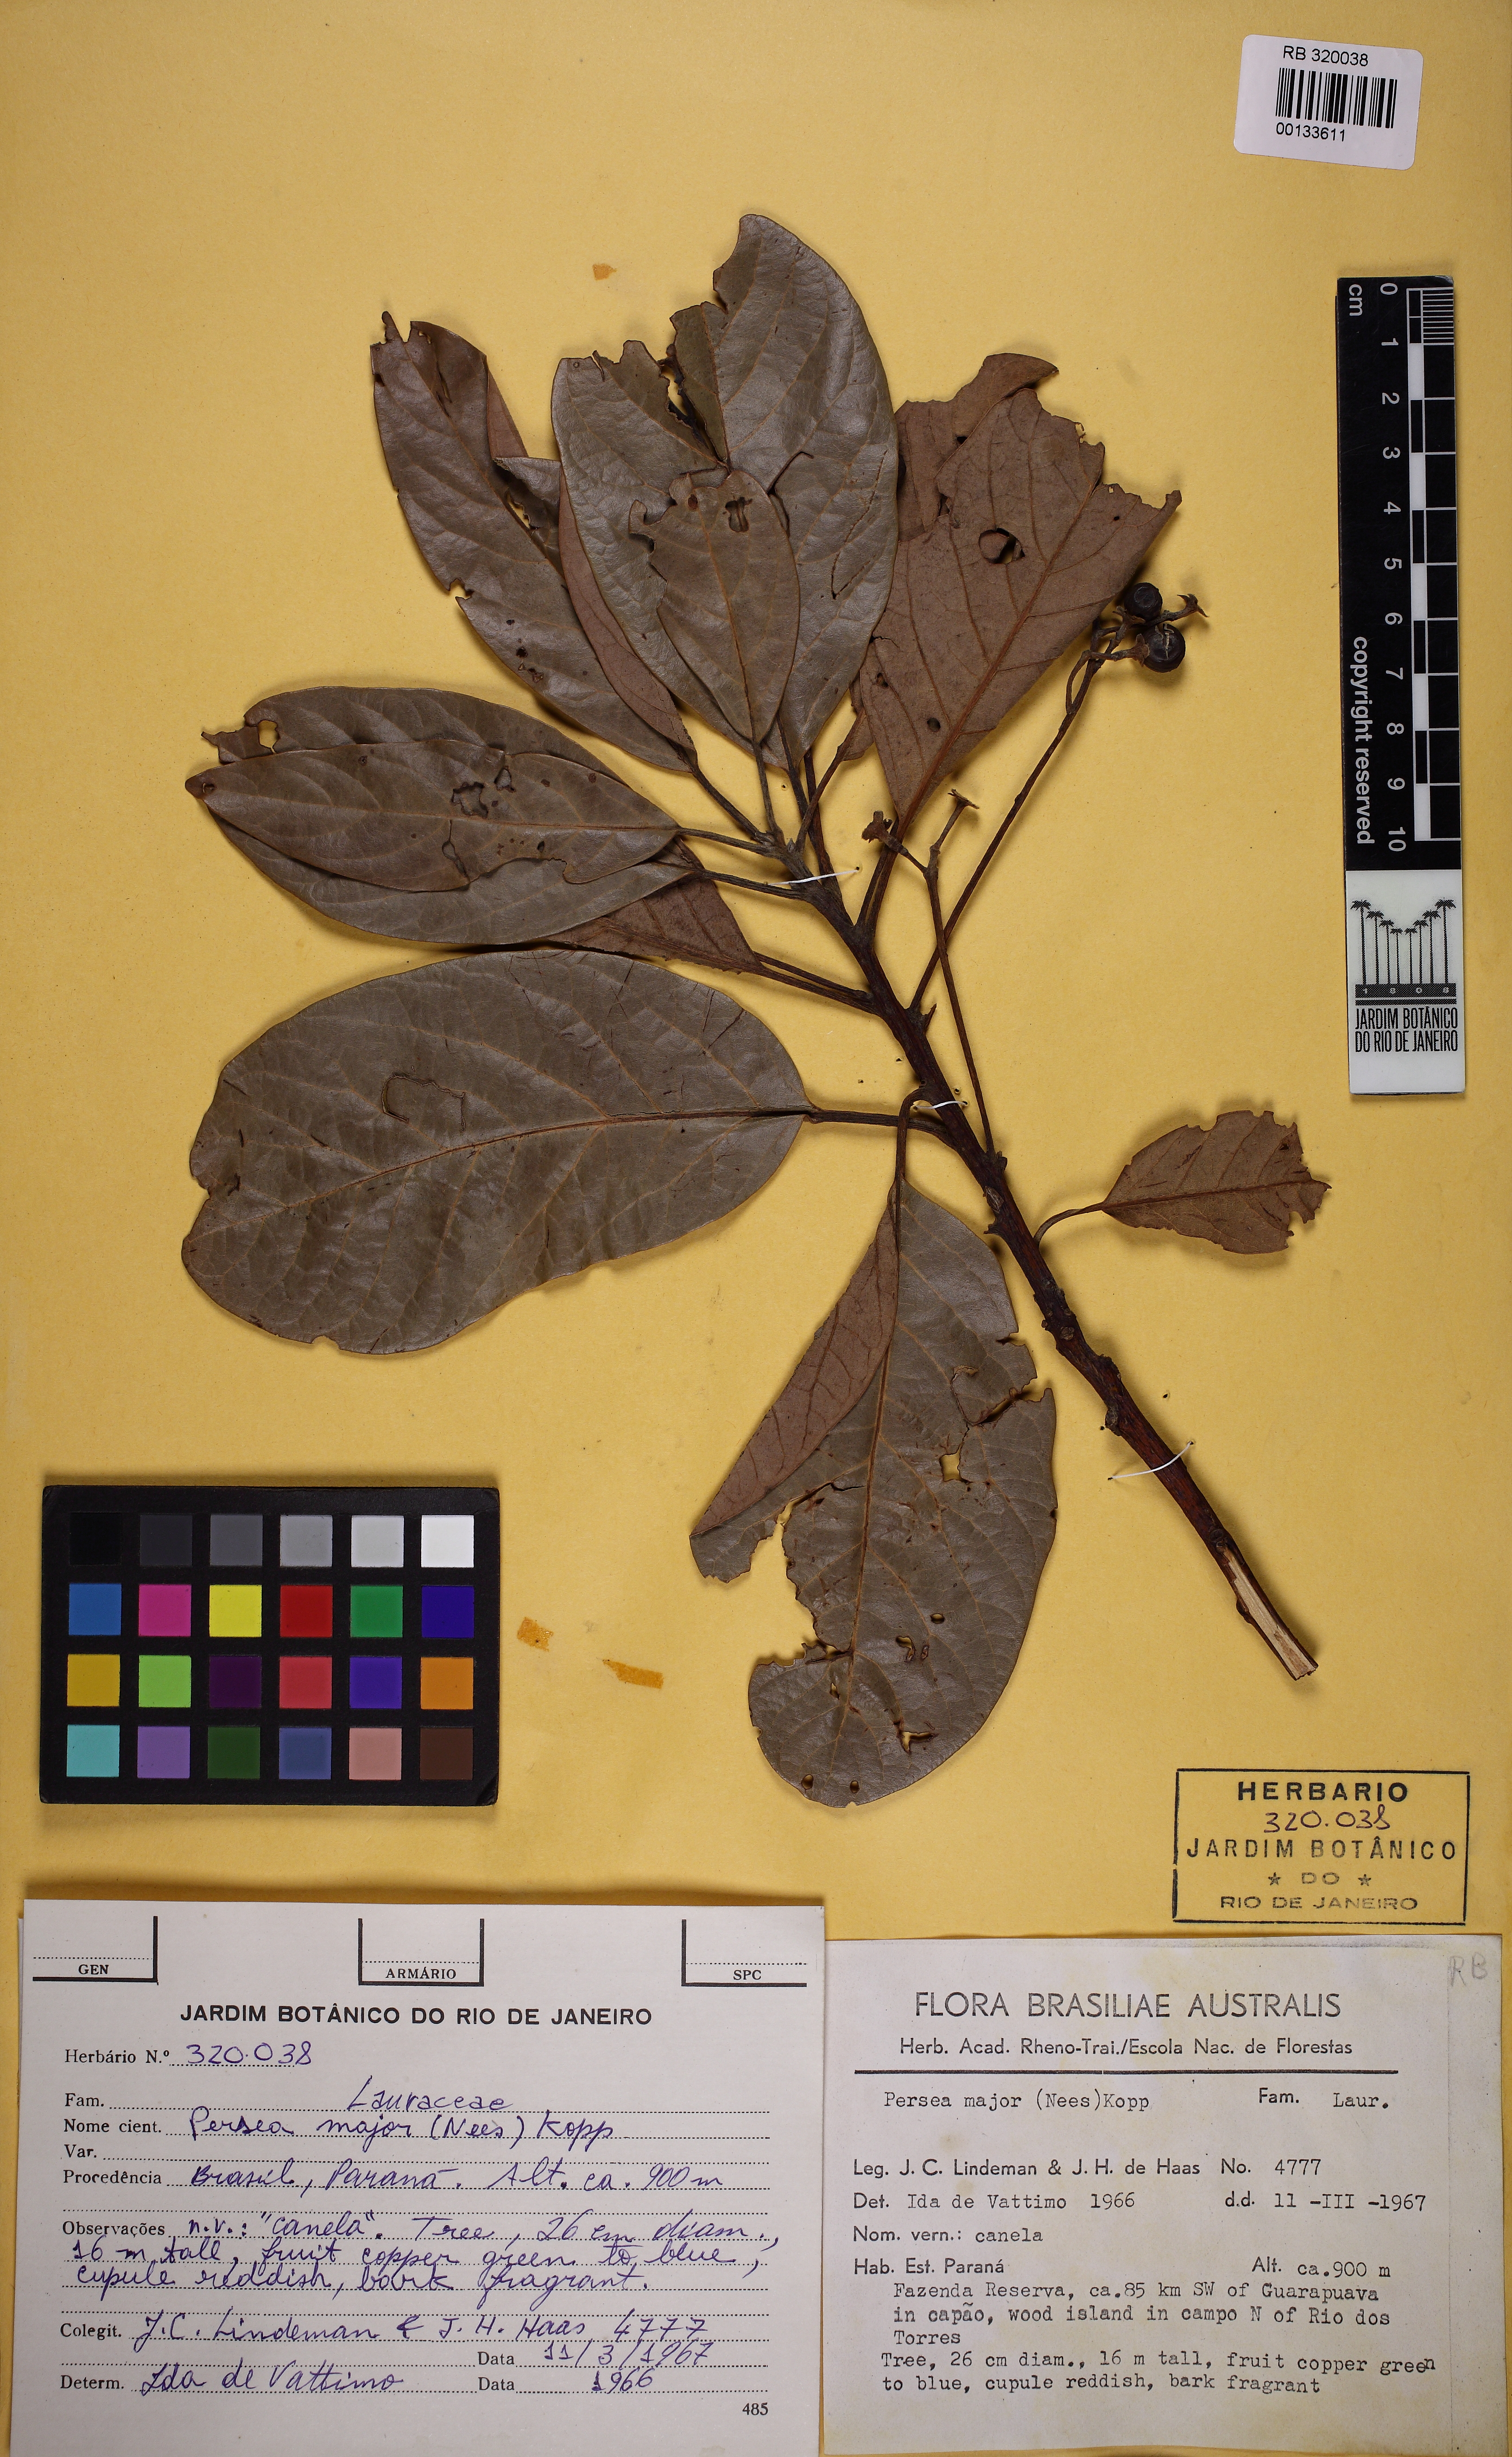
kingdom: Plantae
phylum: Tracheophyta
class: Magnoliopsida
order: Laurales
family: Lauraceae
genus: Persea
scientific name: Persea major
